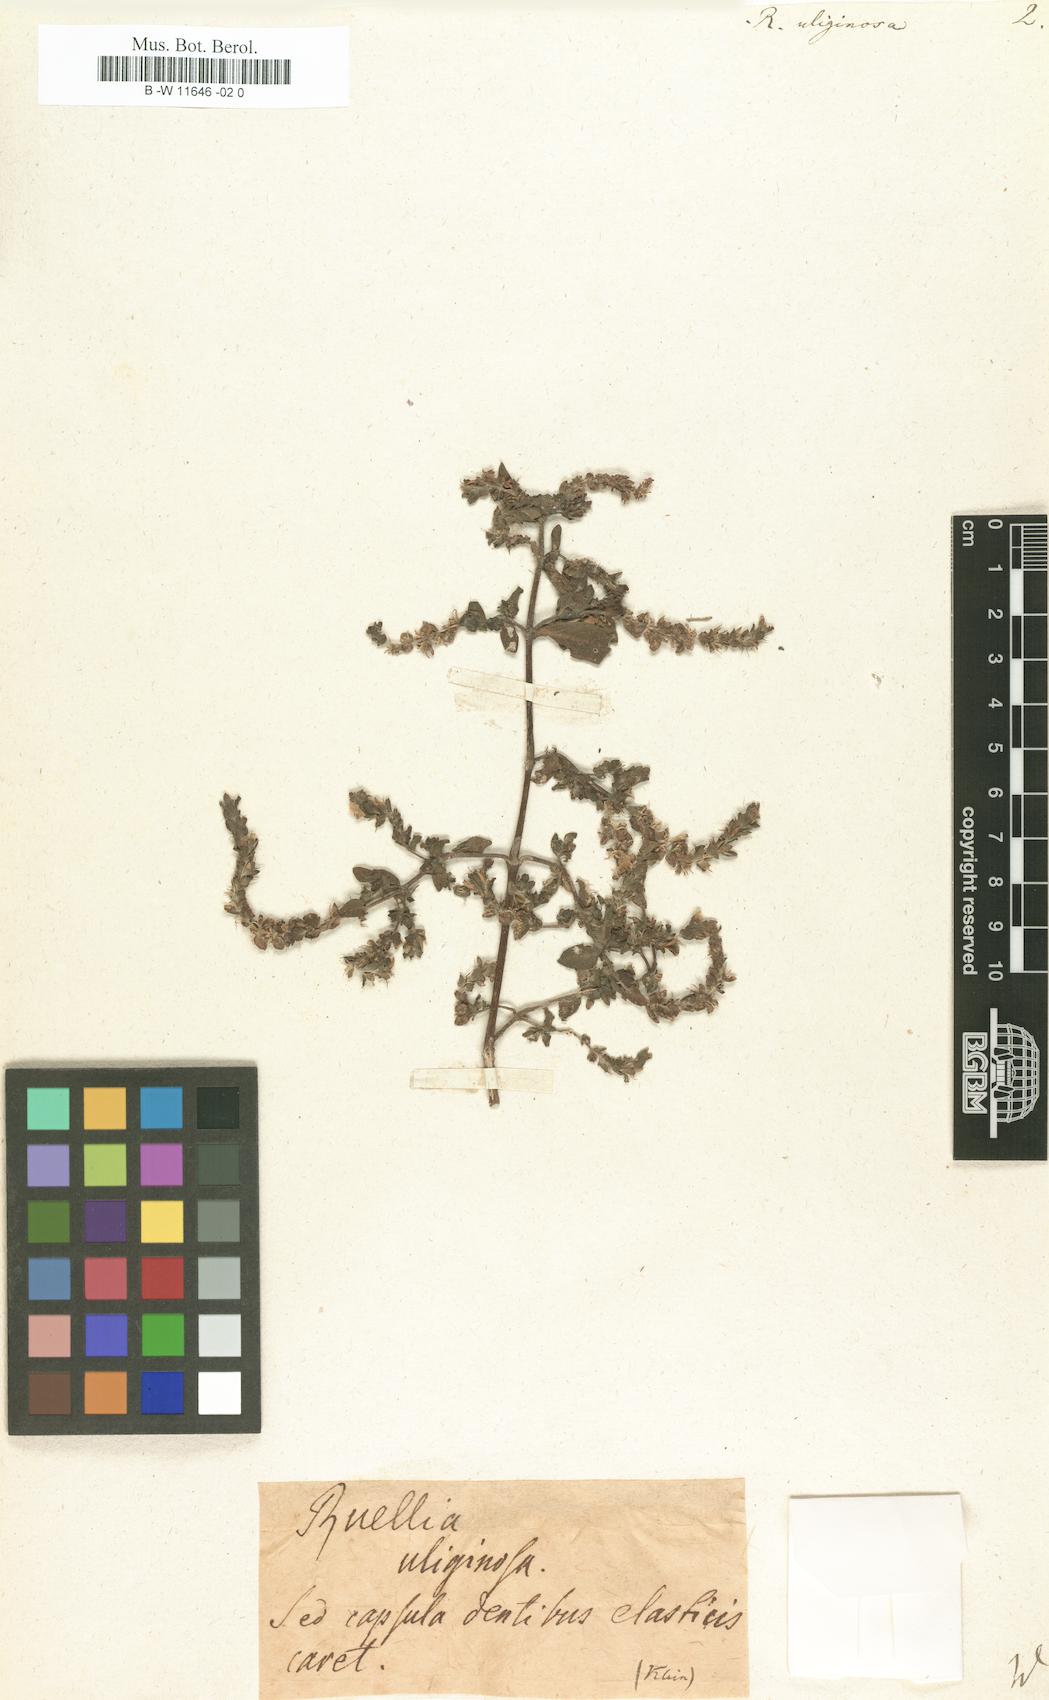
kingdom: Plantae
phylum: Tracheophyta
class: Magnoliopsida
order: Lamiales
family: Acanthaceae
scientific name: Acanthaceae
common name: Acanthaceae
